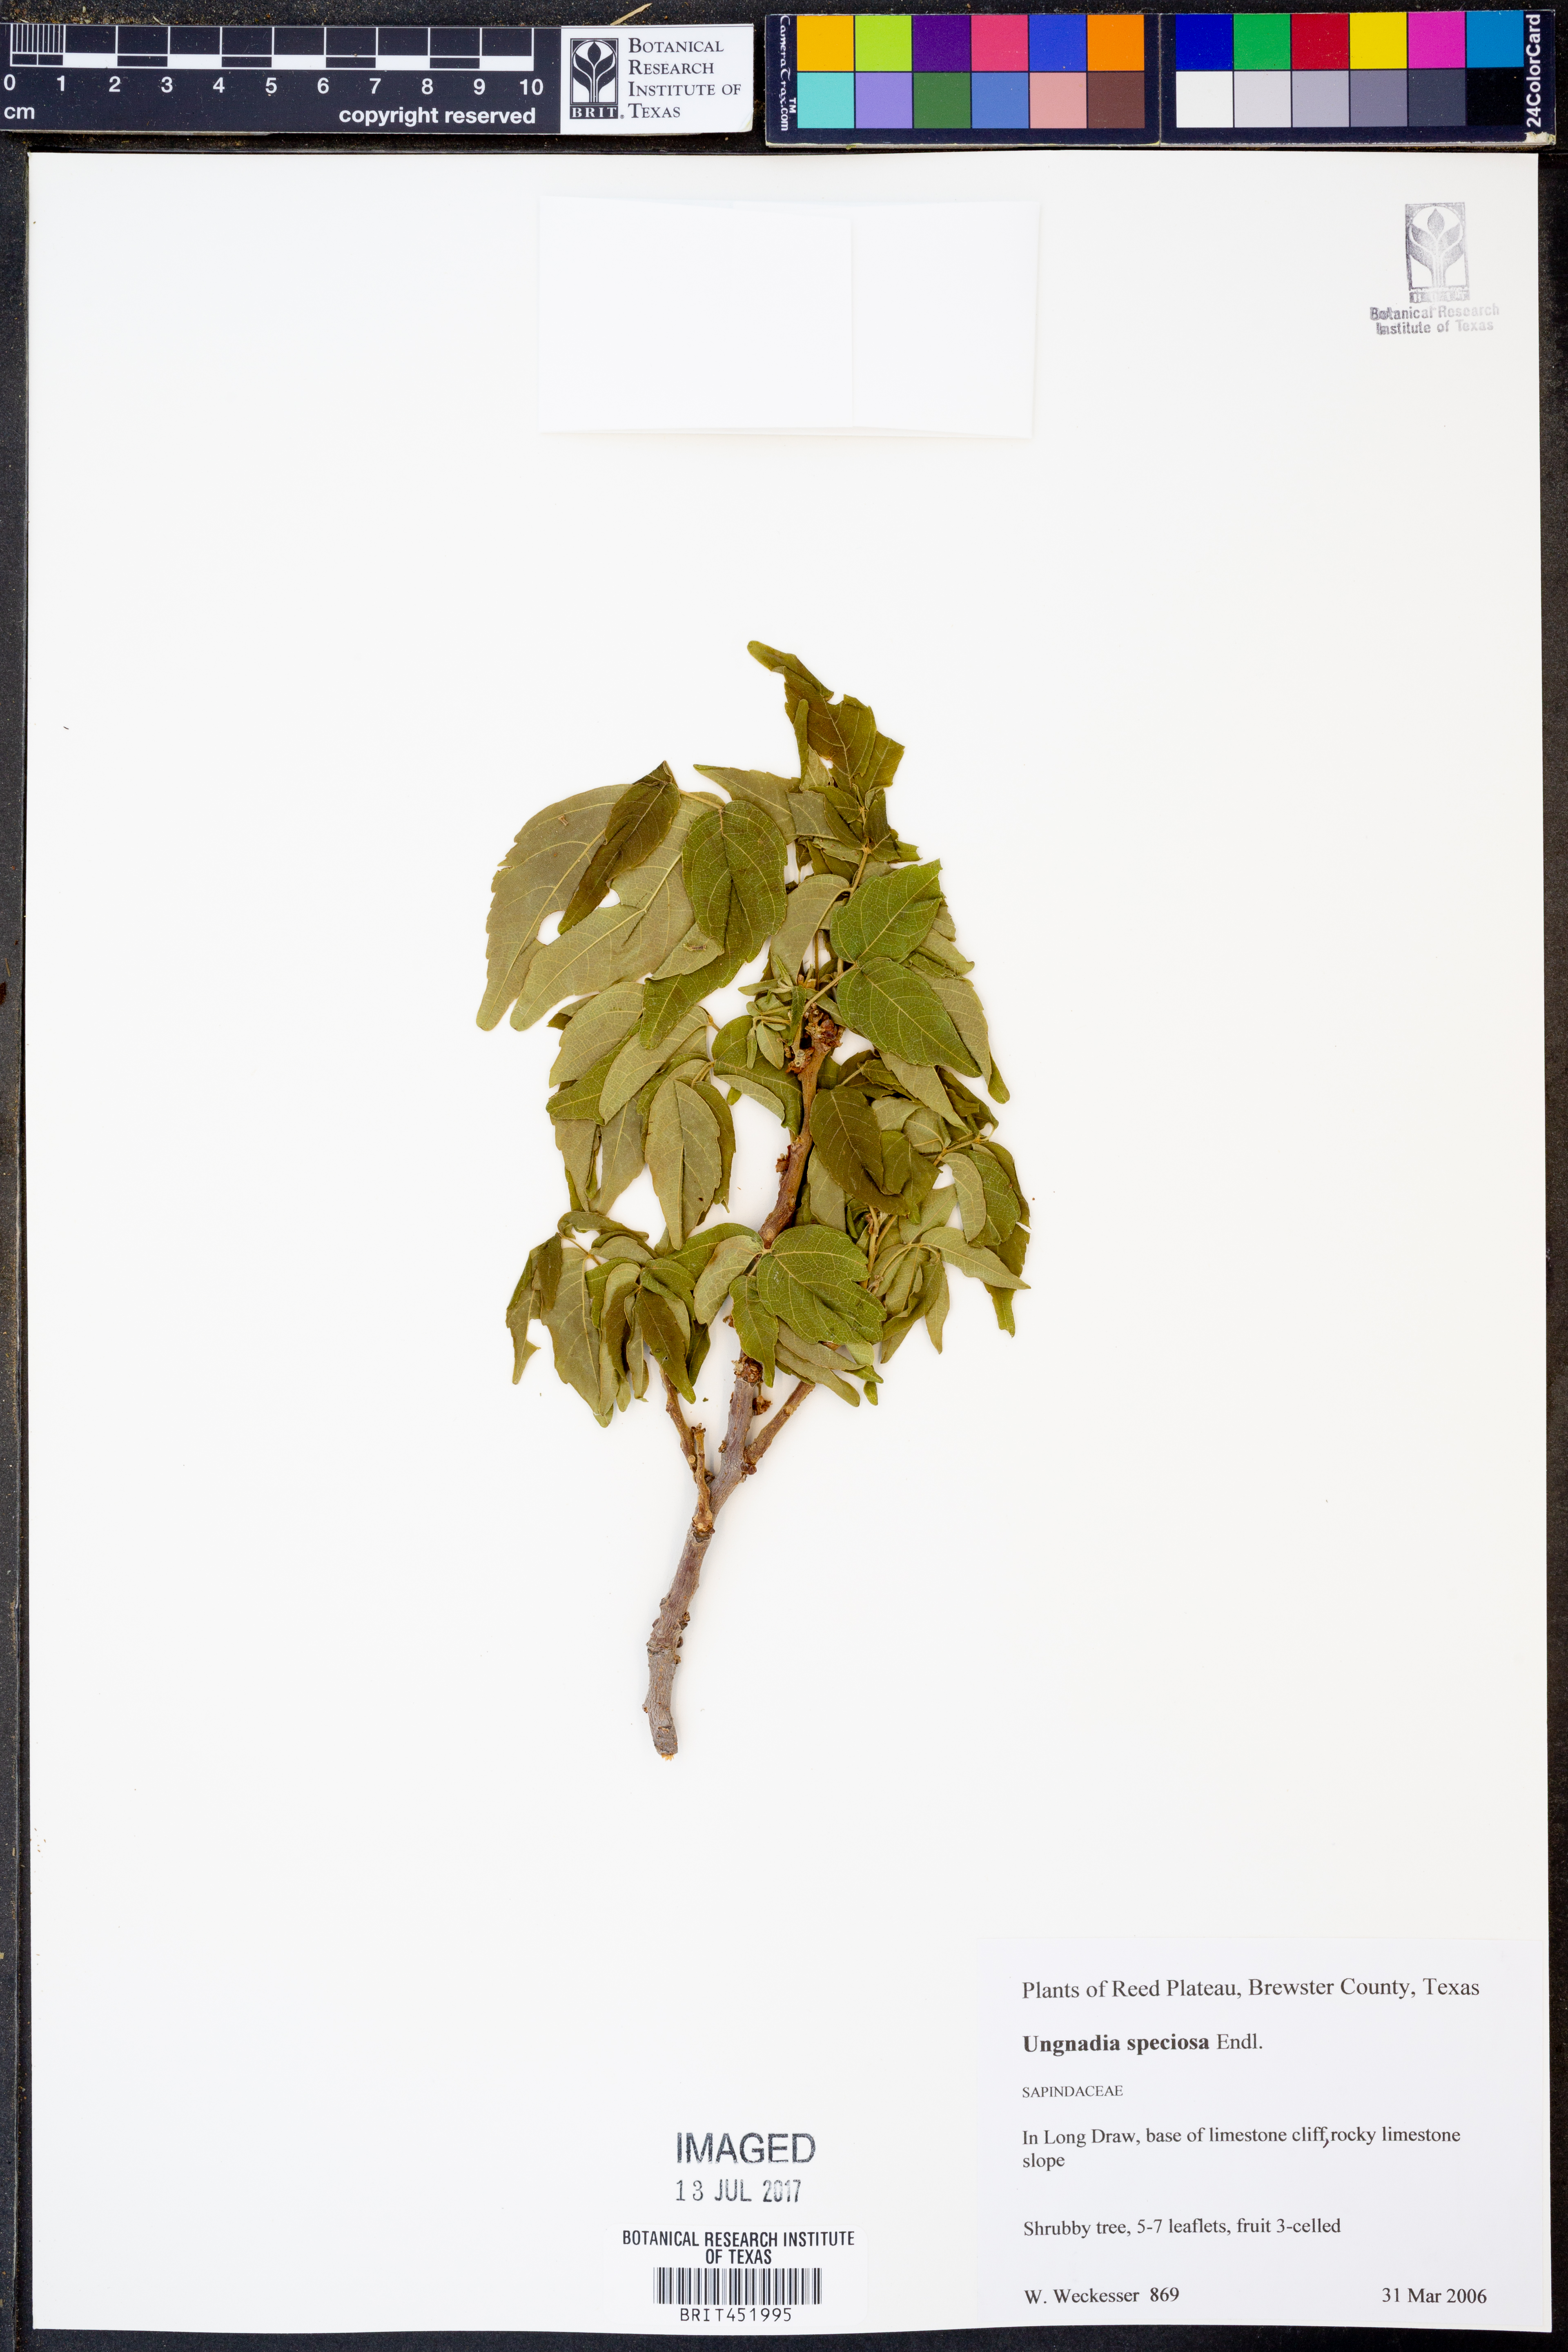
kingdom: Plantae
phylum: Tracheophyta
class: Magnoliopsida
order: Sapindales
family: Sapindaceae
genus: Ungnadia
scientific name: Ungnadia speciosa
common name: Texas-buckeye
